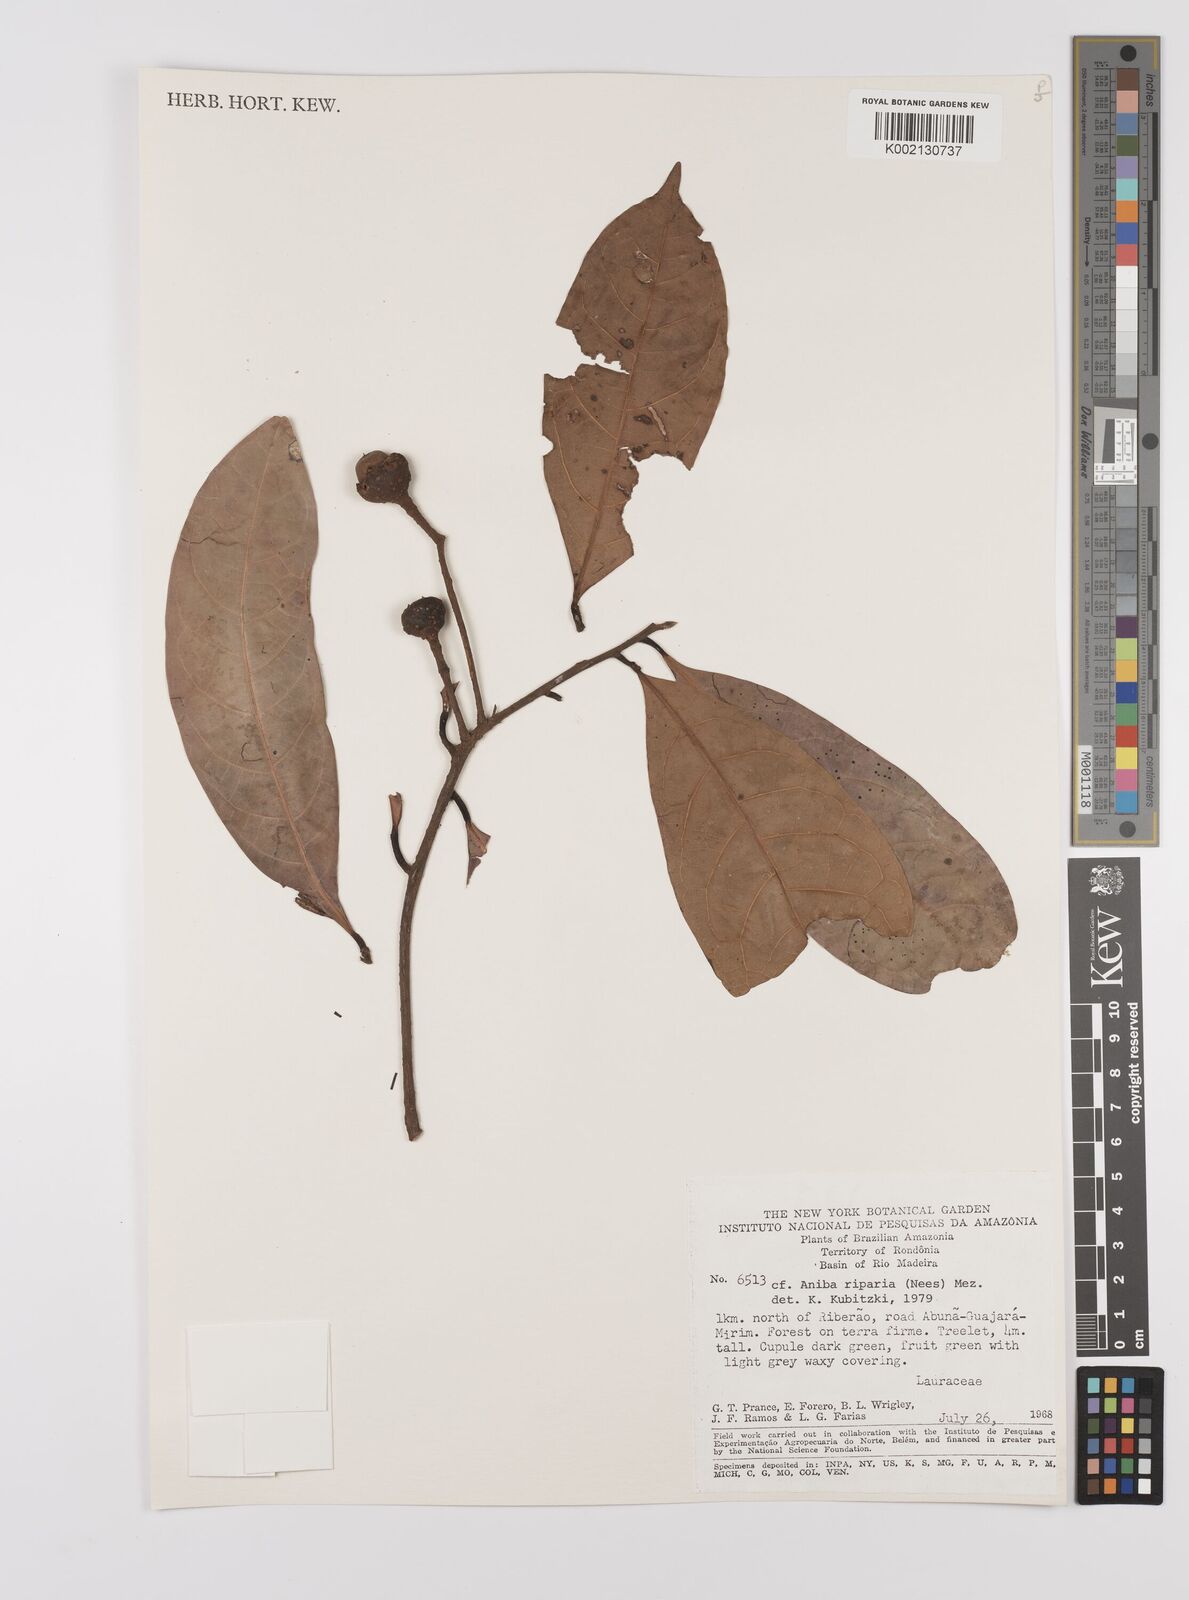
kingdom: Plantae
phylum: Tracheophyta
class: Magnoliopsida
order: Laurales
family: Lauraceae
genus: Aniba
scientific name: Aniba riparia
